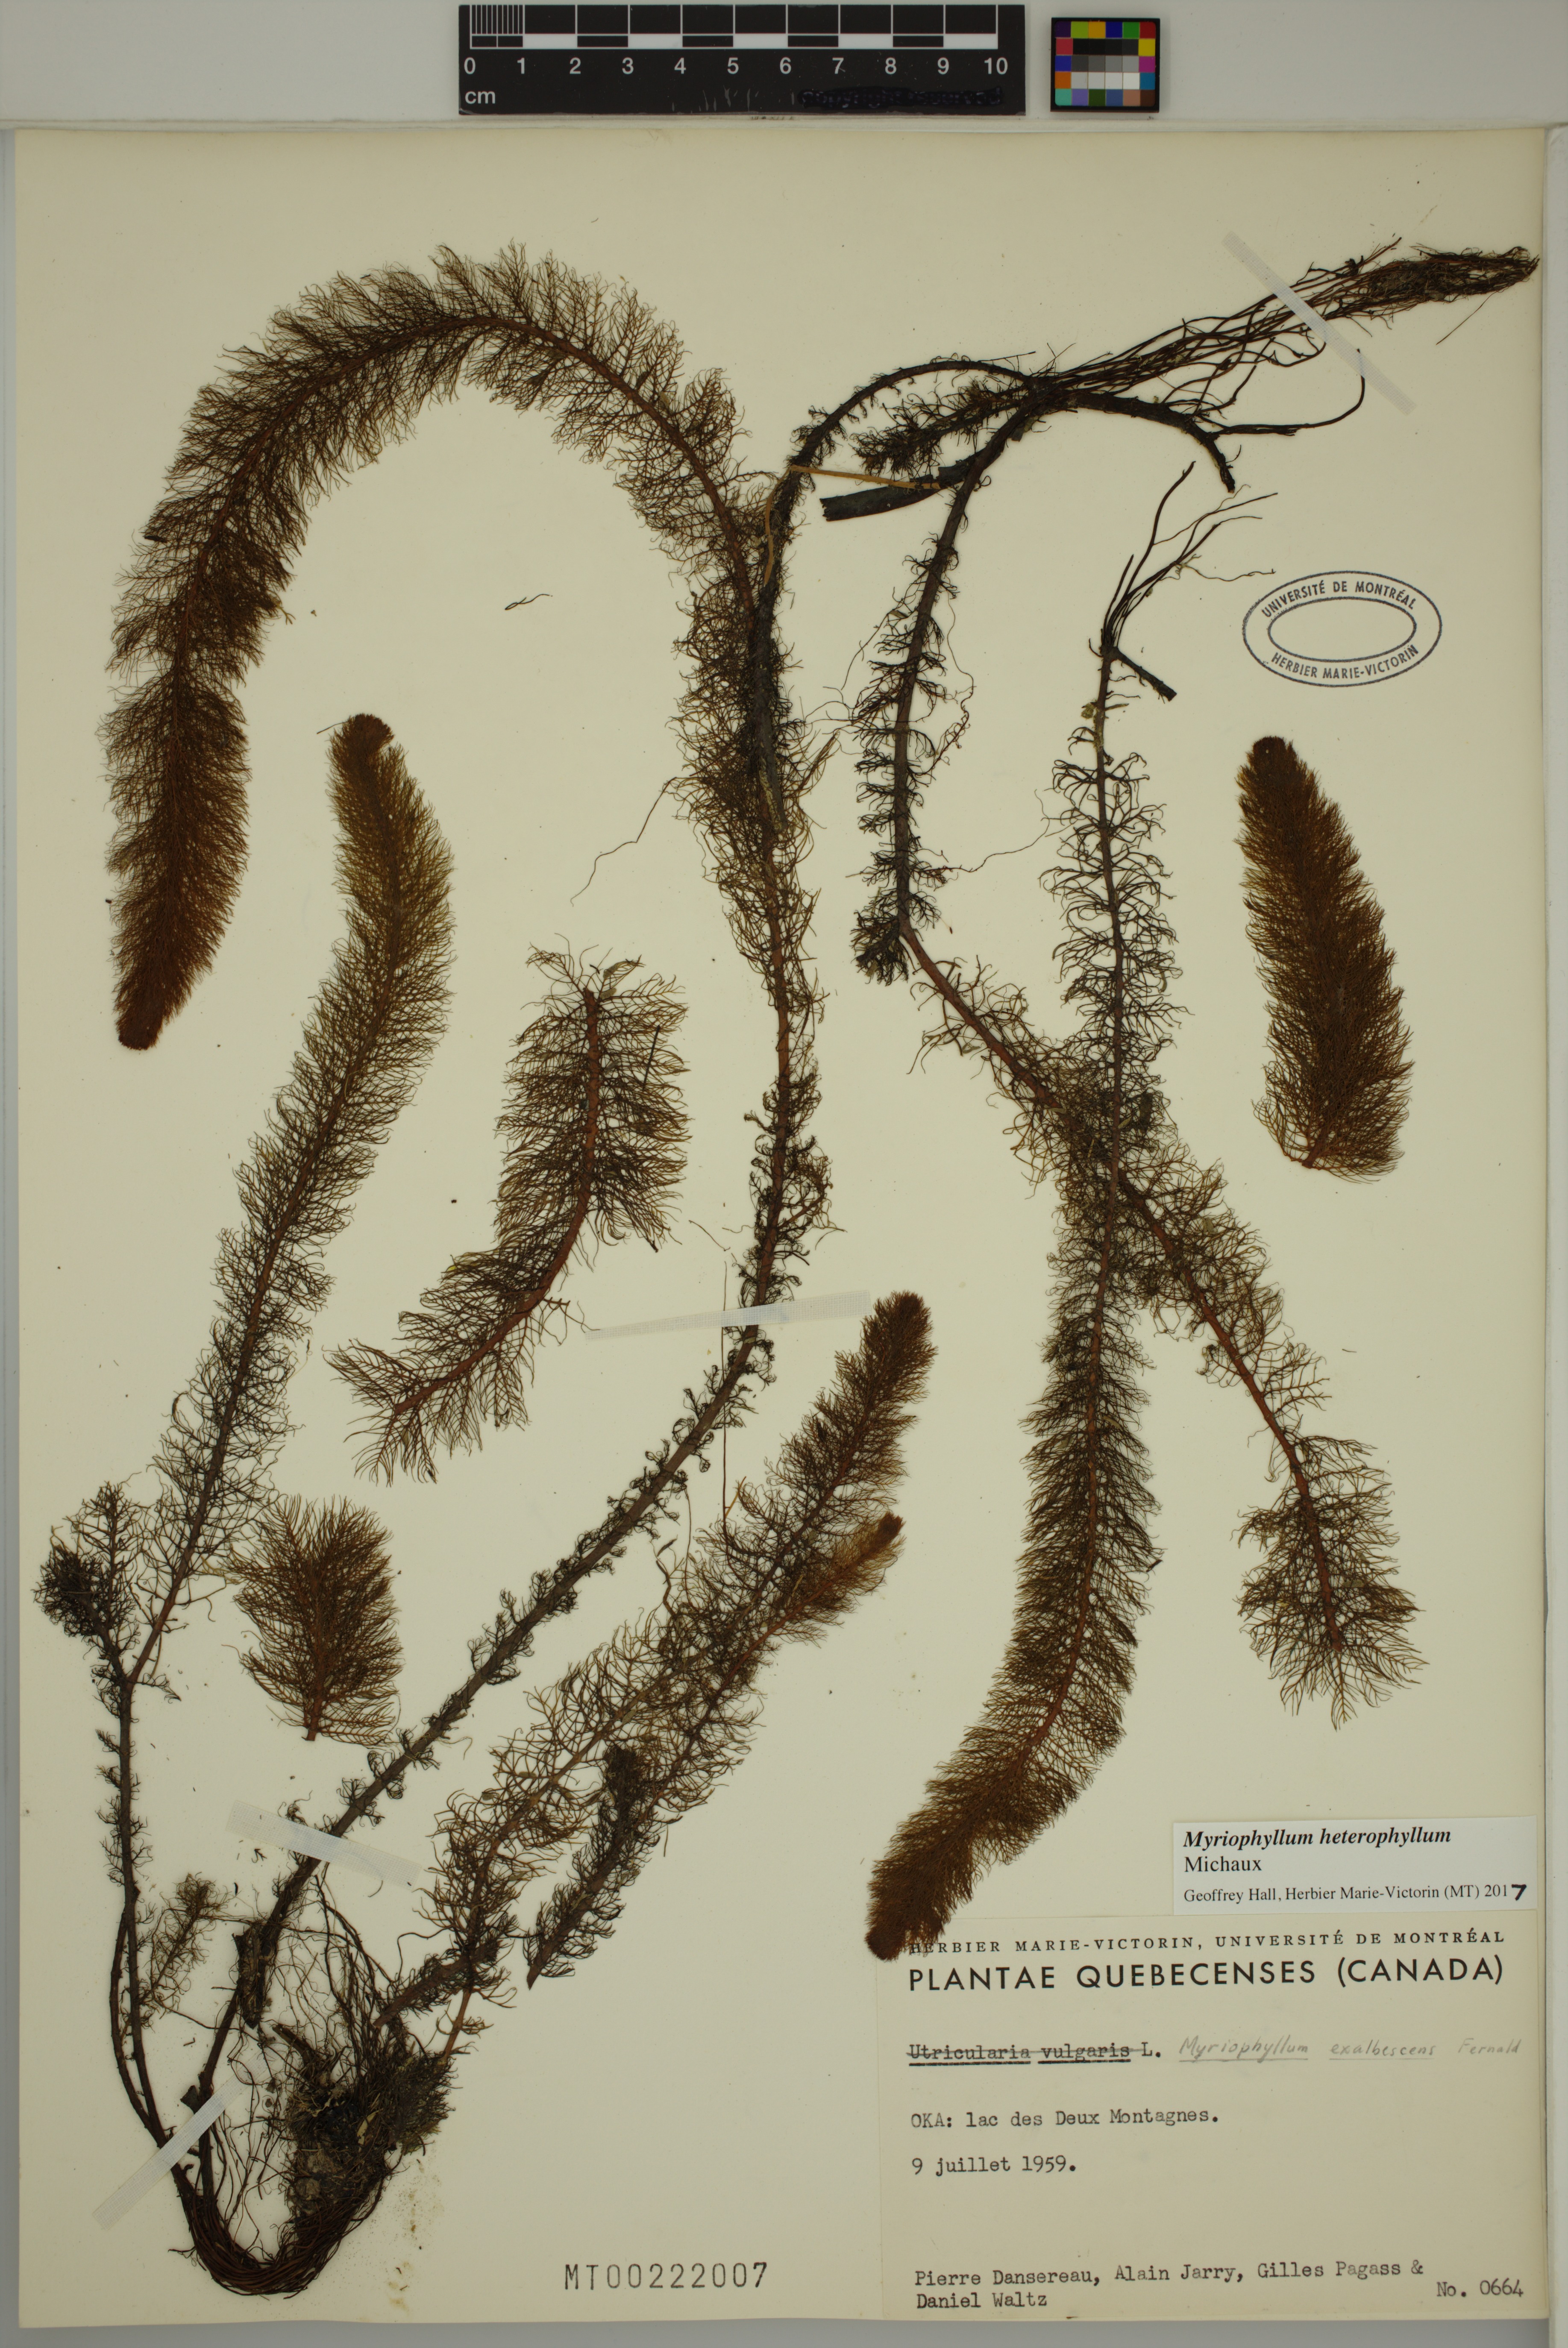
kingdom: Plantae
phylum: Tracheophyta
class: Magnoliopsida
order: Saxifragales
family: Haloragaceae
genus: Myriophyllum
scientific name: Myriophyllum heterophyllum
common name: Variable watermilfoil
